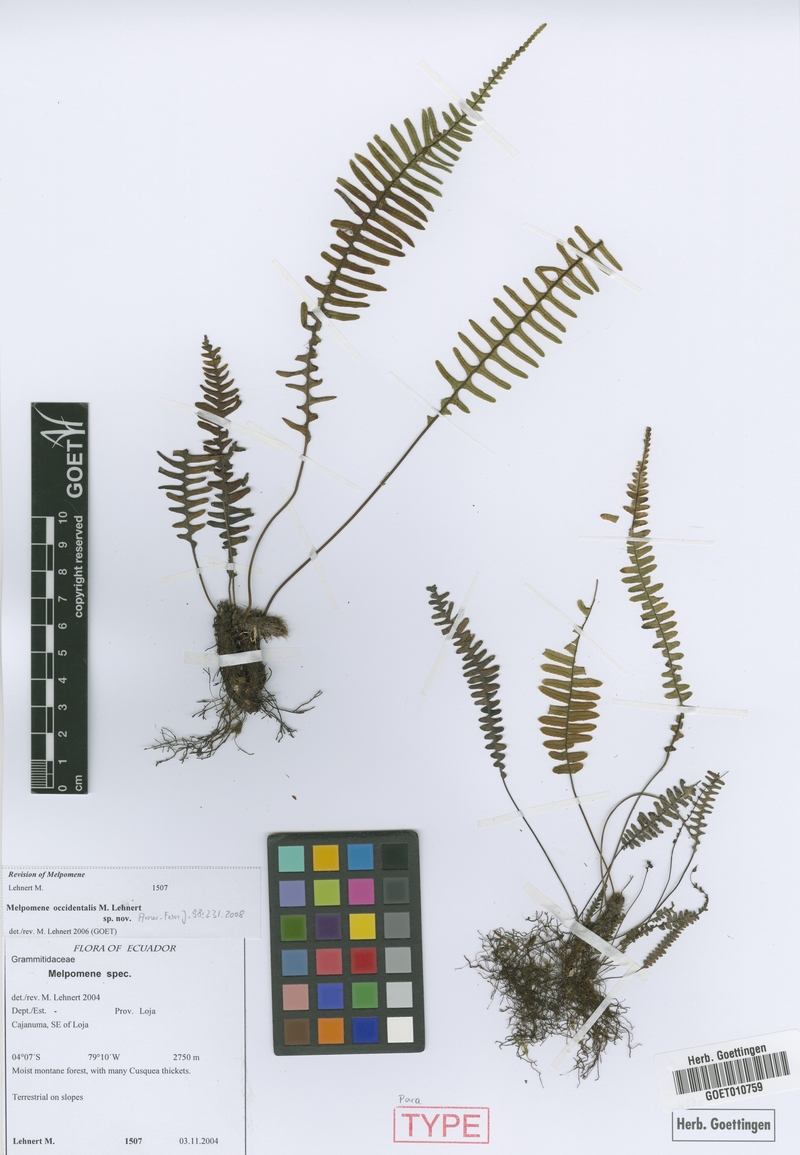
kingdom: Plantae
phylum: Tracheophyta
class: Polypodiopsida
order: Polypodiales
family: Polypodiaceae
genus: Melpomene
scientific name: Melpomene occidentalis
